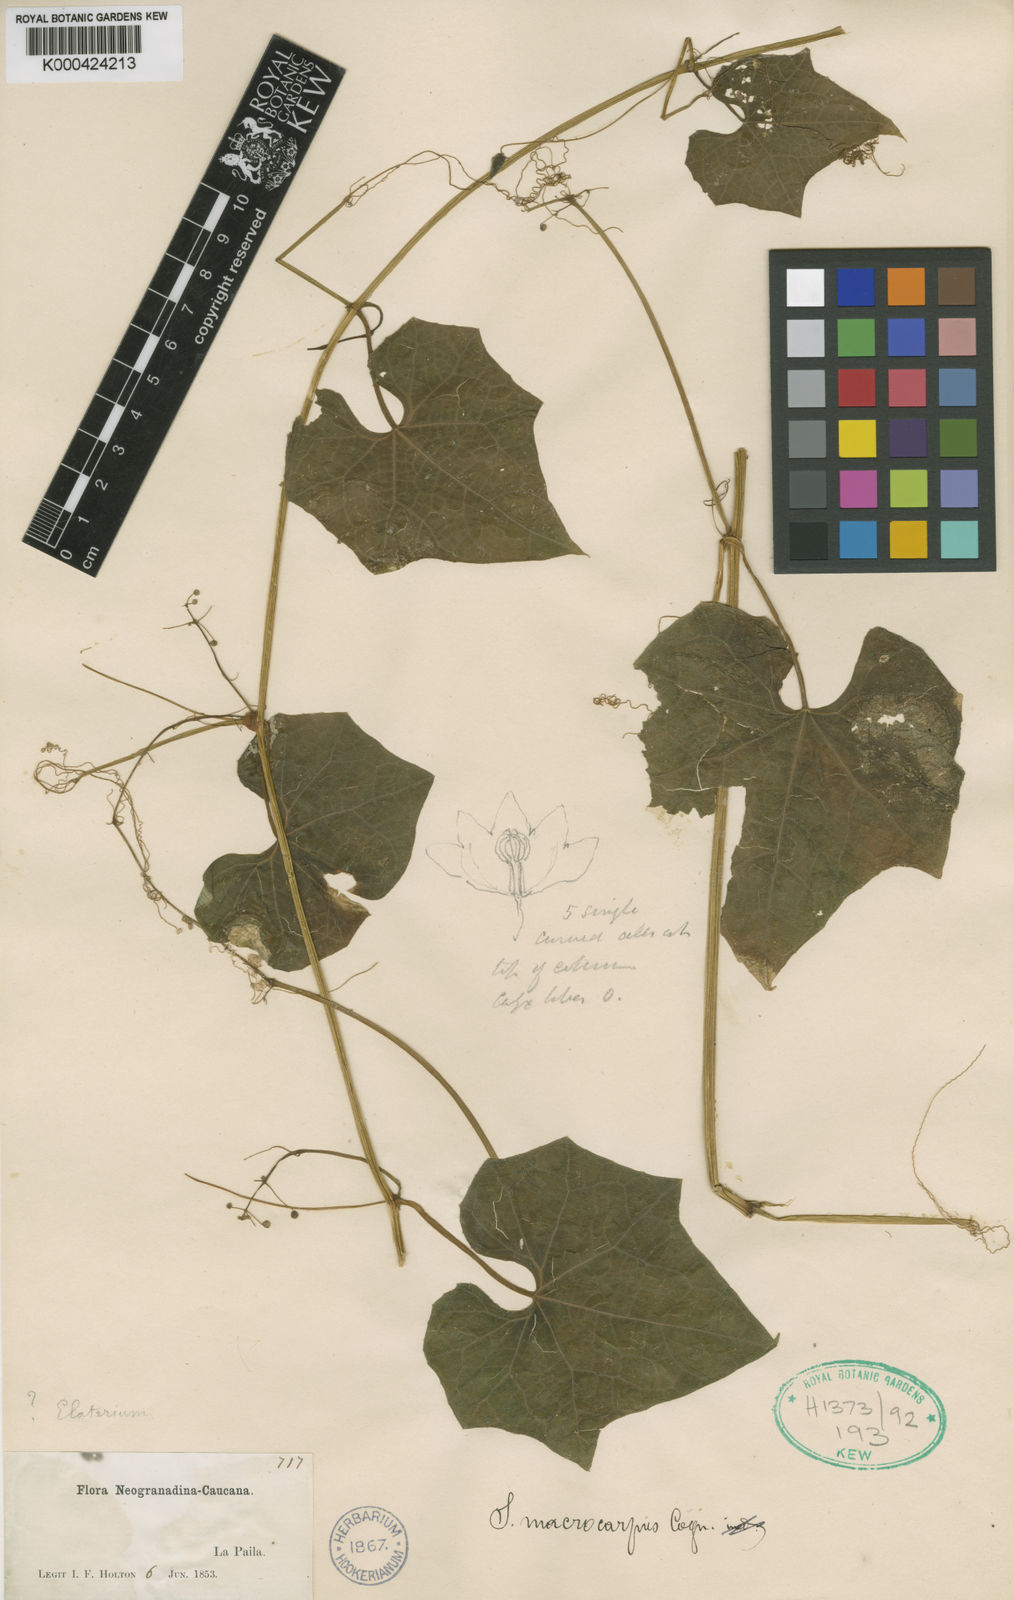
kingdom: Plantae
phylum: Tracheophyta
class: Magnoliopsida
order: Cucurbitales
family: Cucurbitaceae
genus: Sicyos
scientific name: Sicyos macrocarpus
